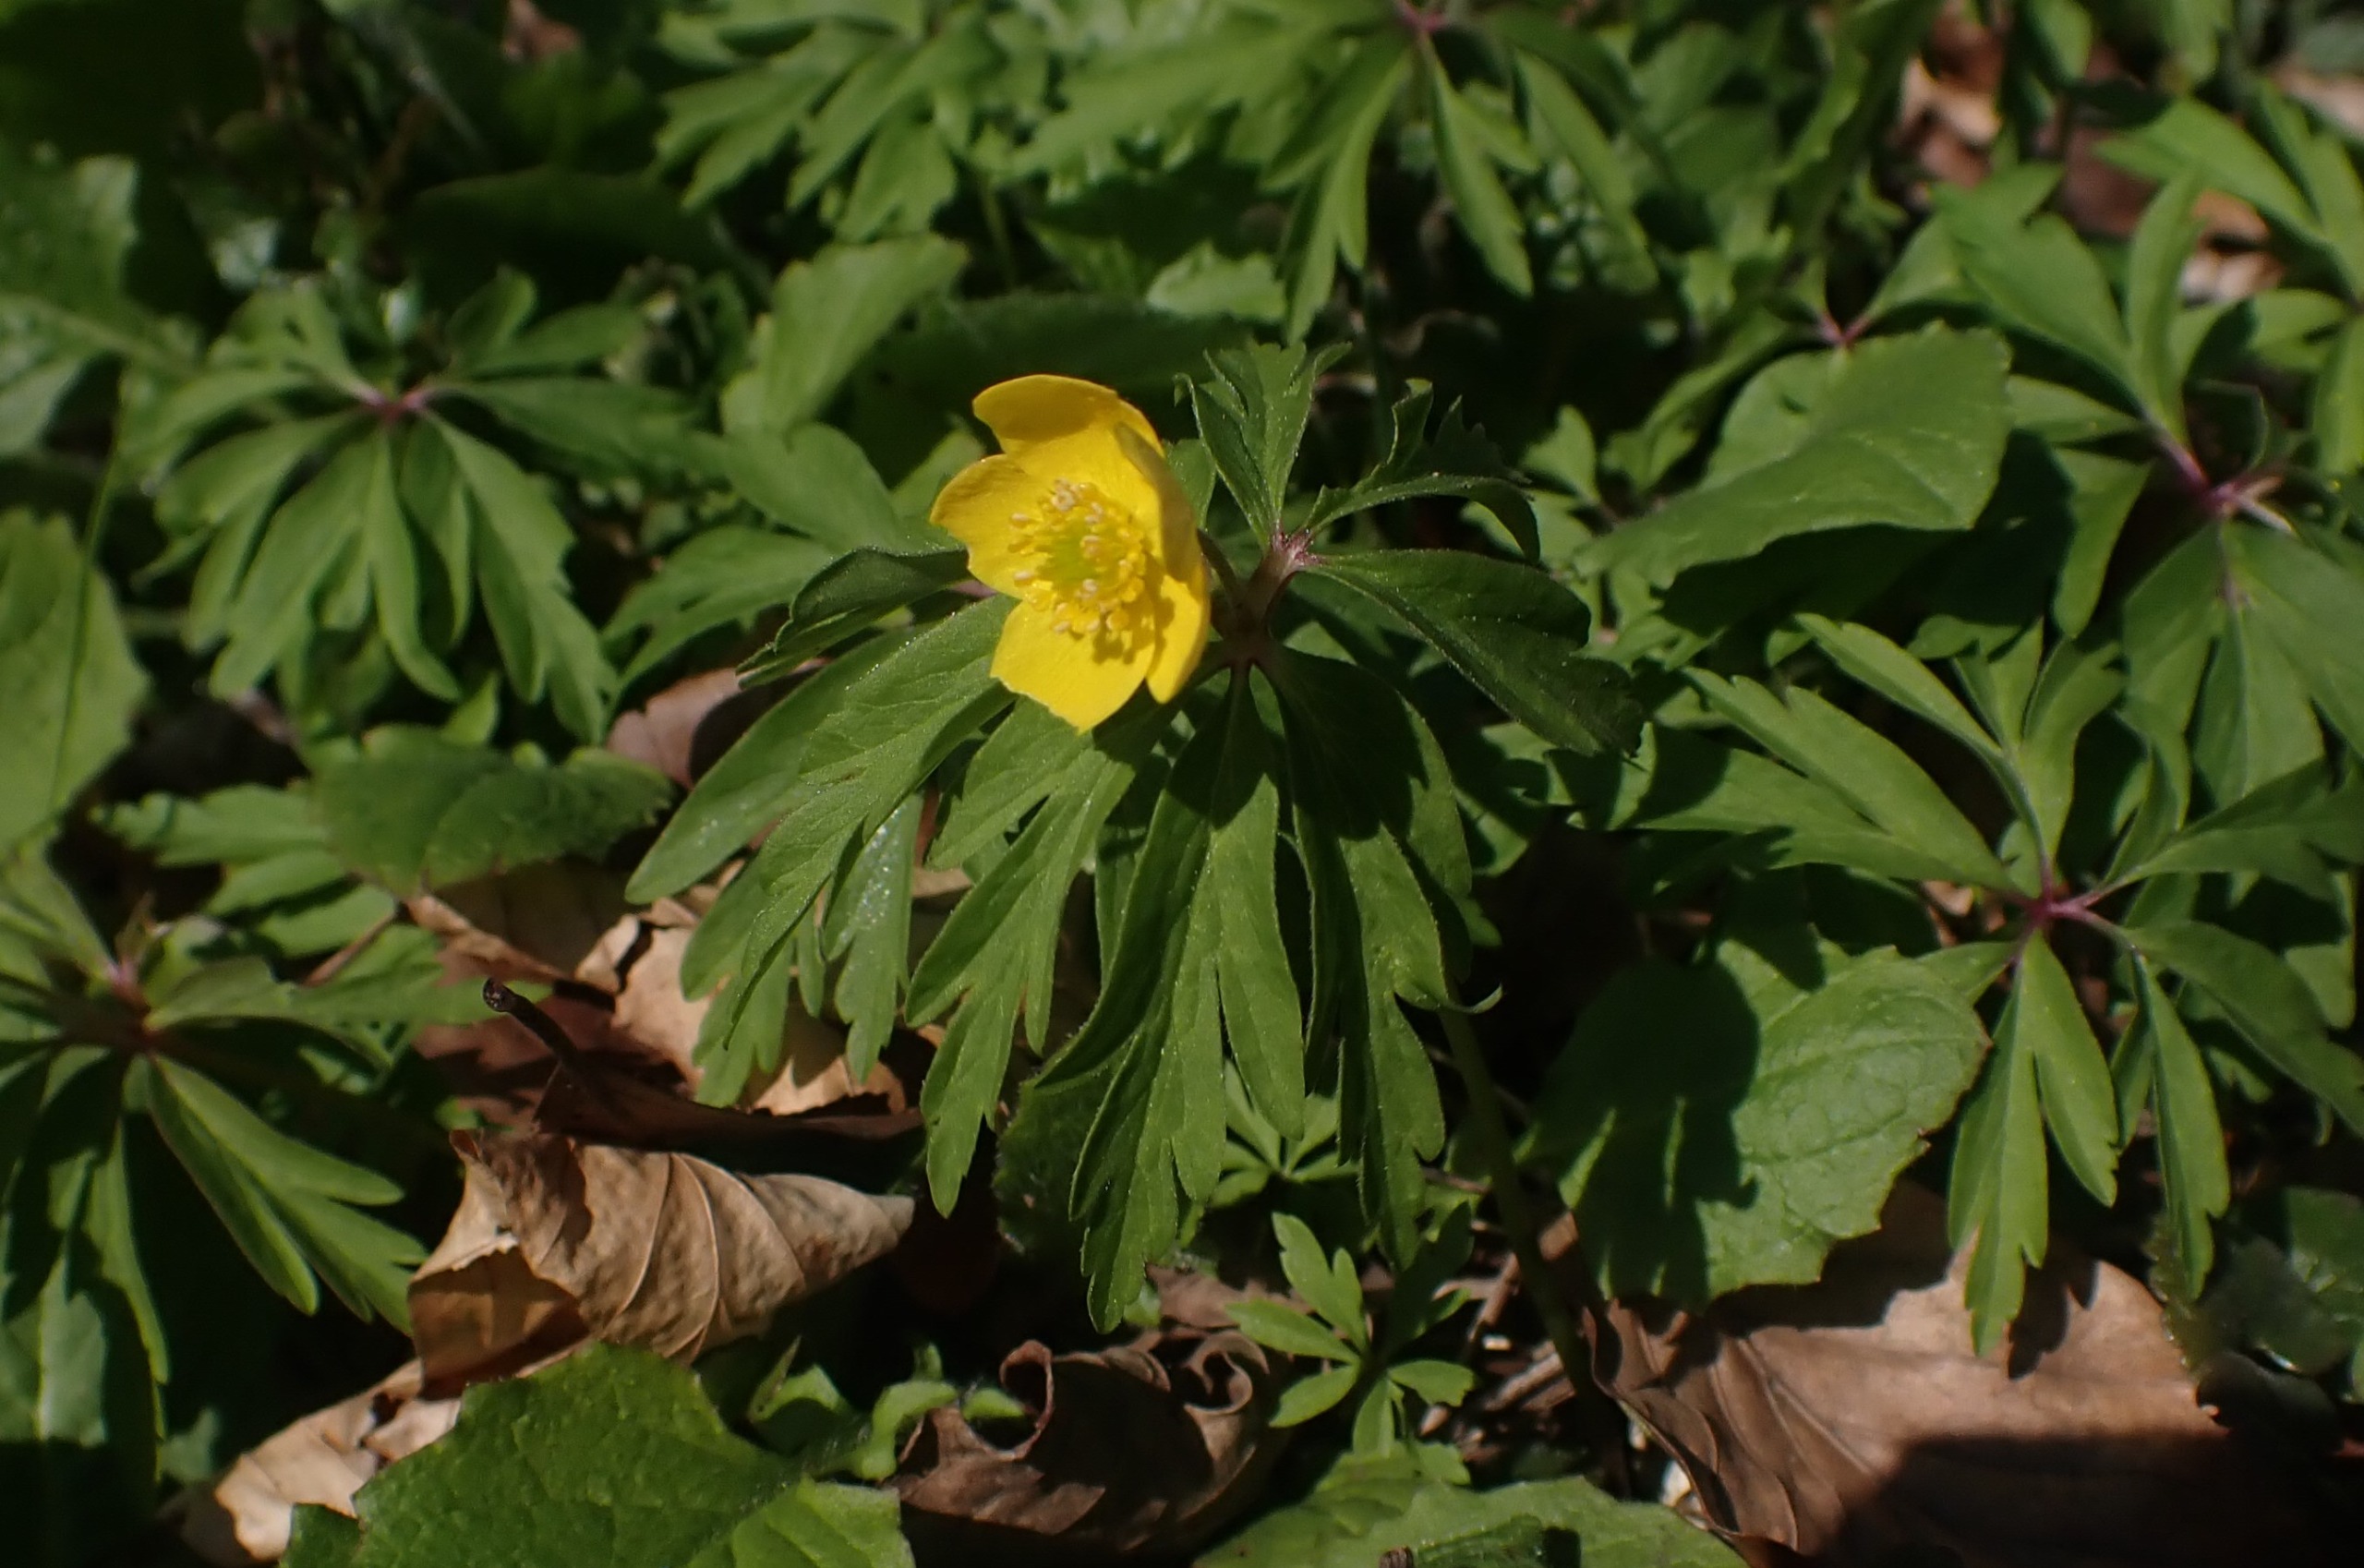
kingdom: Plantae
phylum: Tracheophyta
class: Magnoliopsida
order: Ranunculales
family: Ranunculaceae
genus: Anemone
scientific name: Anemone ranunculoides
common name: Gul anemone
